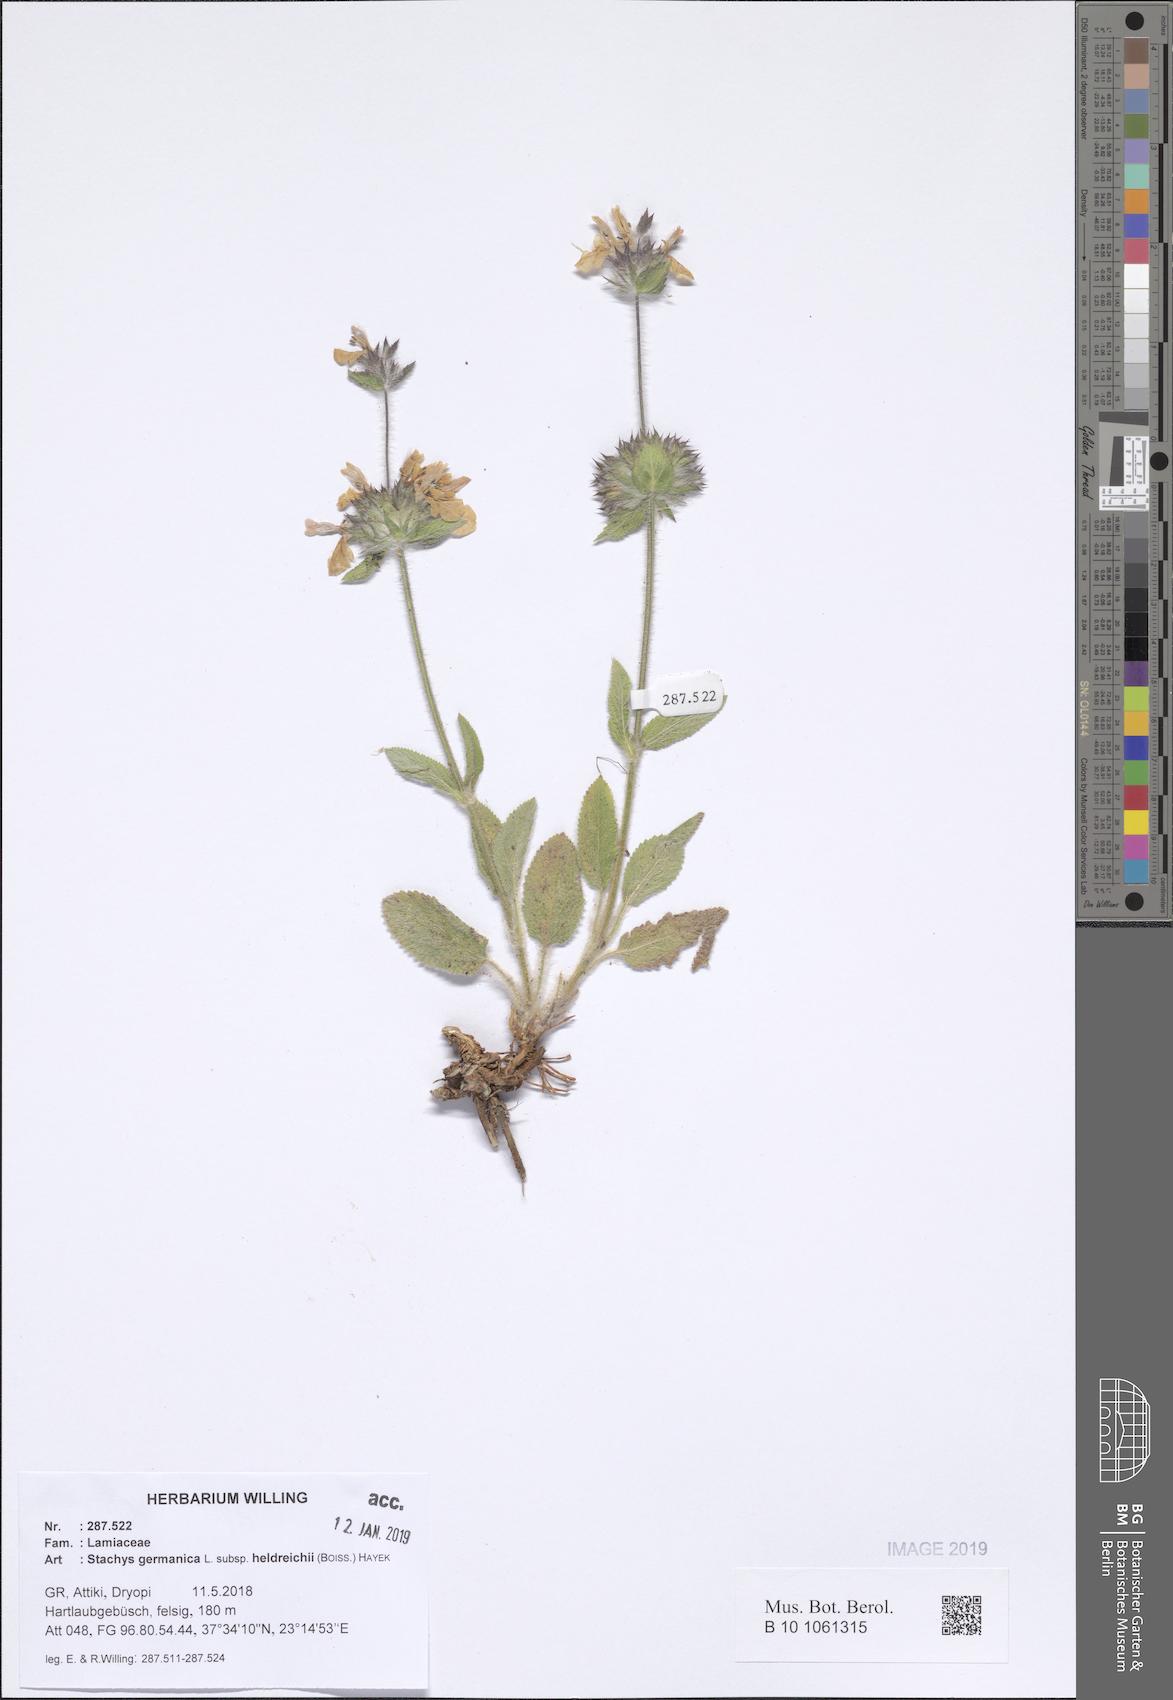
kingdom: Plantae
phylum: Tracheophyta
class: Magnoliopsida
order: Lamiales
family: Lamiaceae
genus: Stachys
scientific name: Stachys germanica
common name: Downy woundwort
